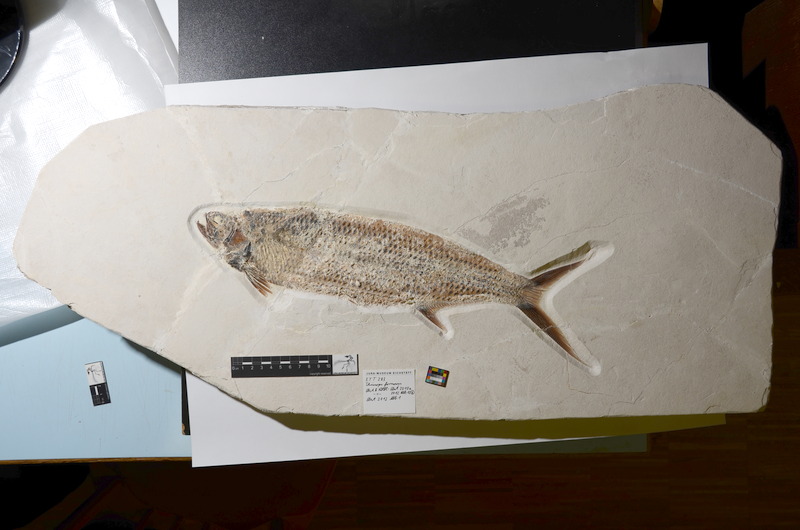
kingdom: Animalia
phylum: Chordata
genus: Thrissops
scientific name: Thrissops formosus
